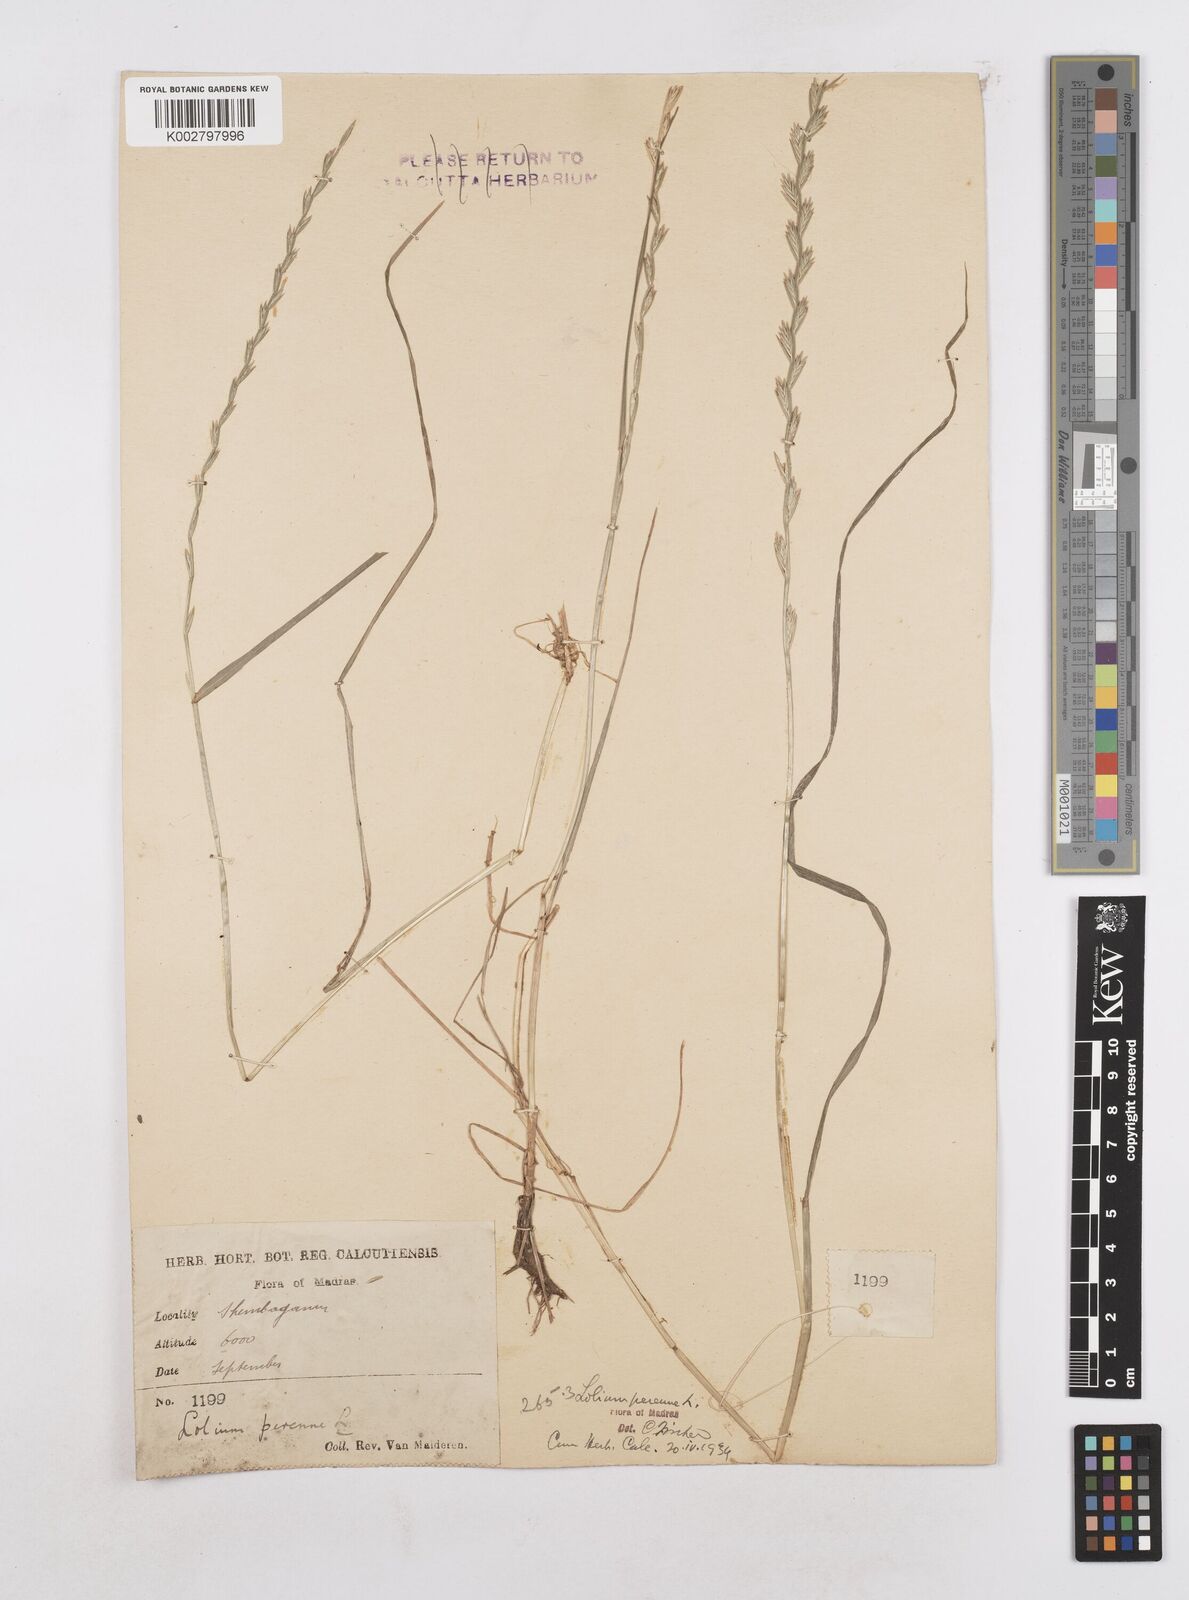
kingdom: Plantae
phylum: Tracheophyta
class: Liliopsida
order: Poales
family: Poaceae
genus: Lolium
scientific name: Lolium perenne
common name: Perennial ryegrass
